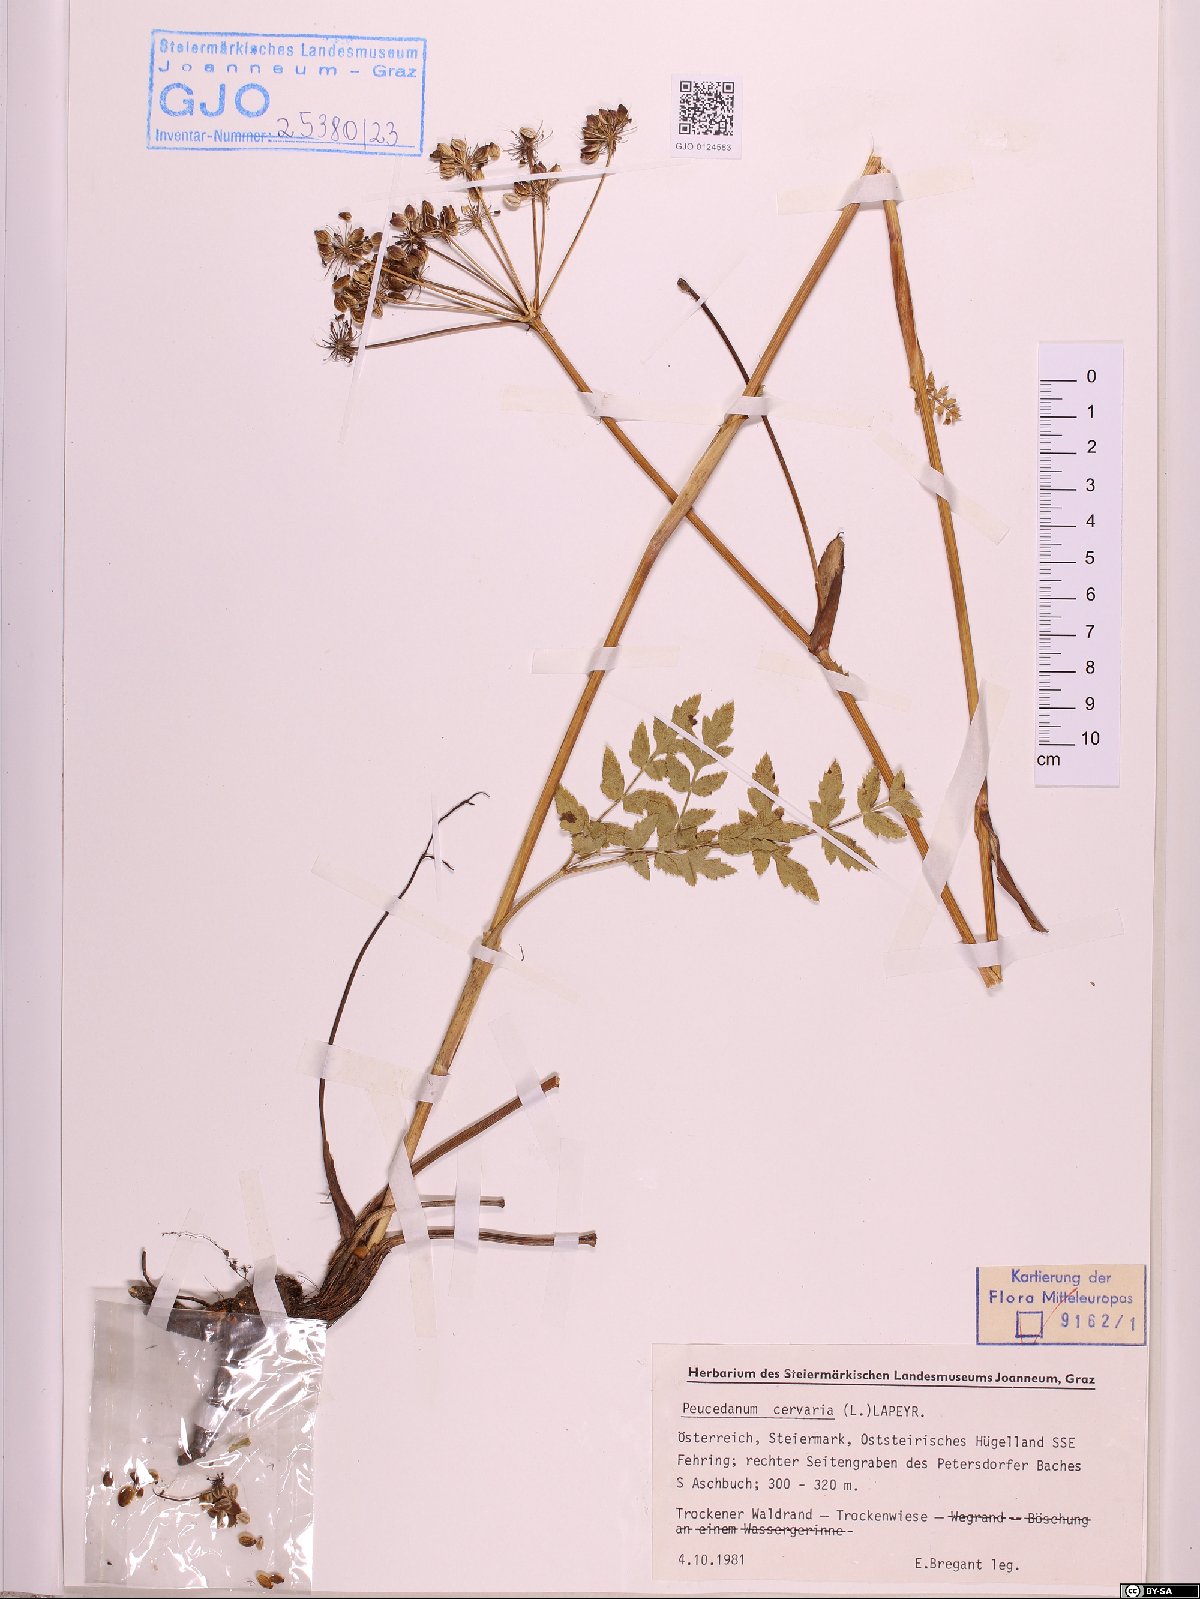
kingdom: Plantae
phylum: Tracheophyta
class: Magnoliopsida
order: Apiales
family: Apiaceae
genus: Cervaria
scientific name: Cervaria rivini
